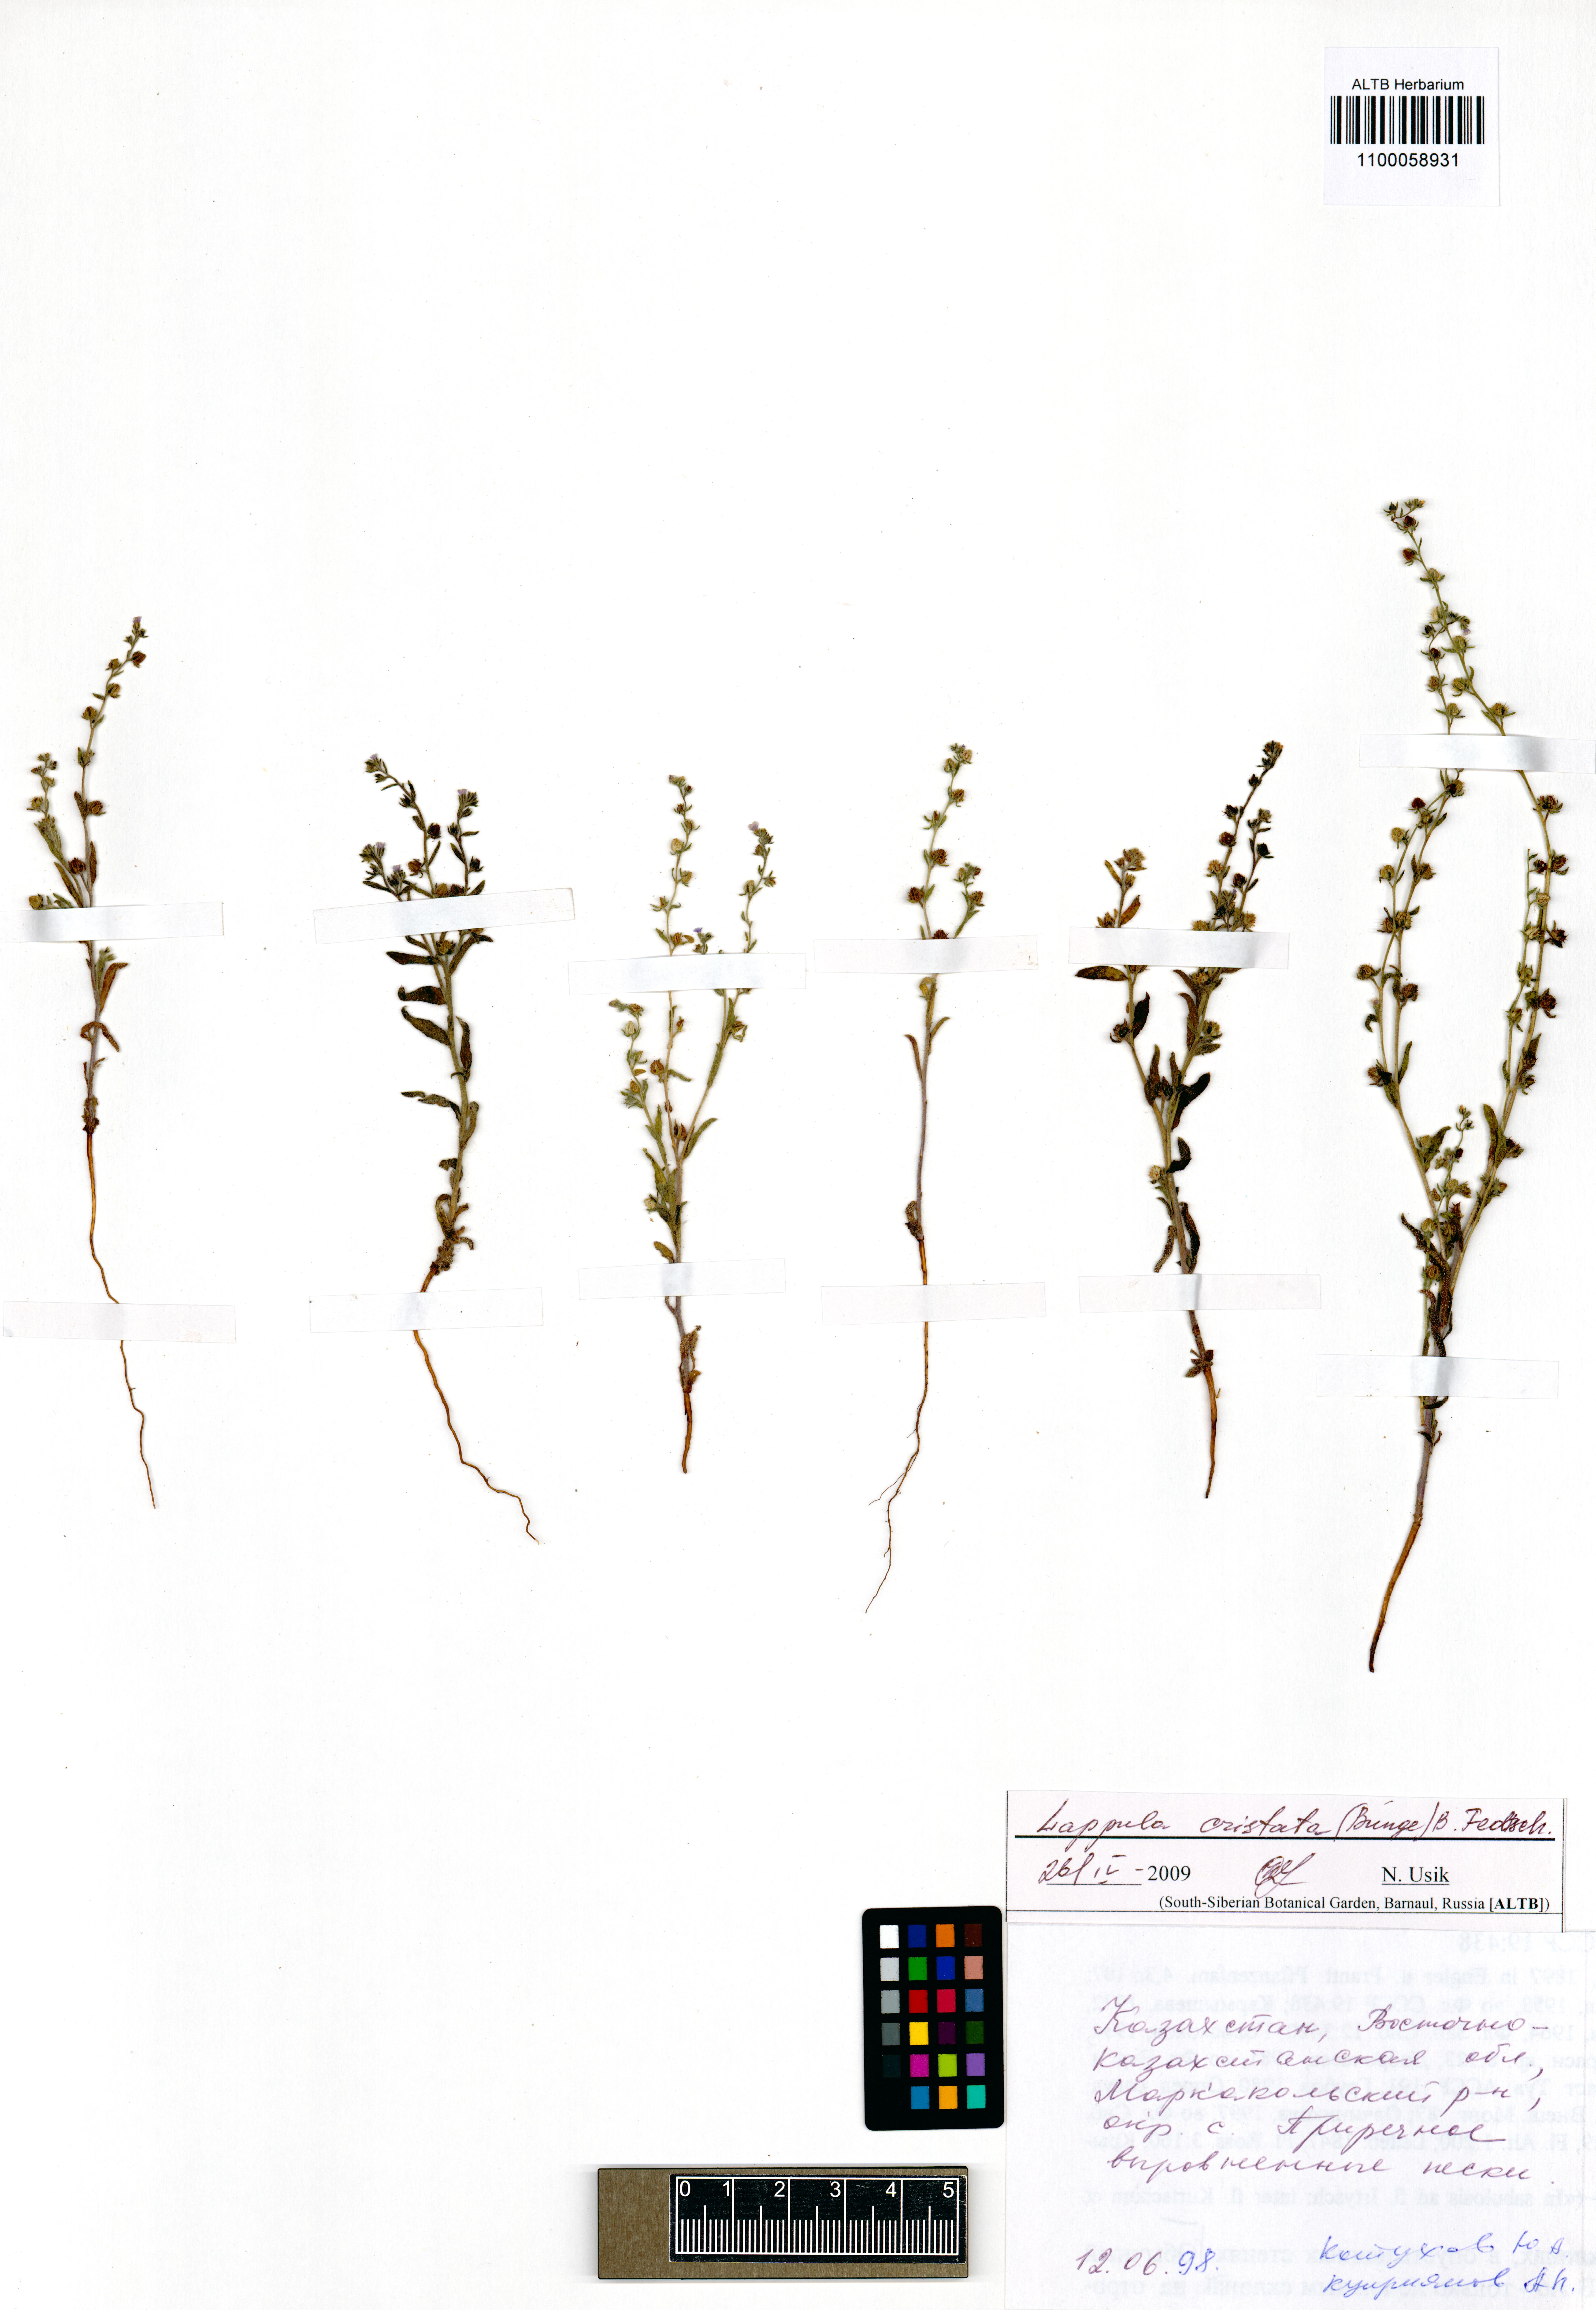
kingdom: Plantae
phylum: Tracheophyta
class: Magnoliopsida
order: Boraginales
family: Boraginaceae
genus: Paracaryum
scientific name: Paracaryum cristatum
